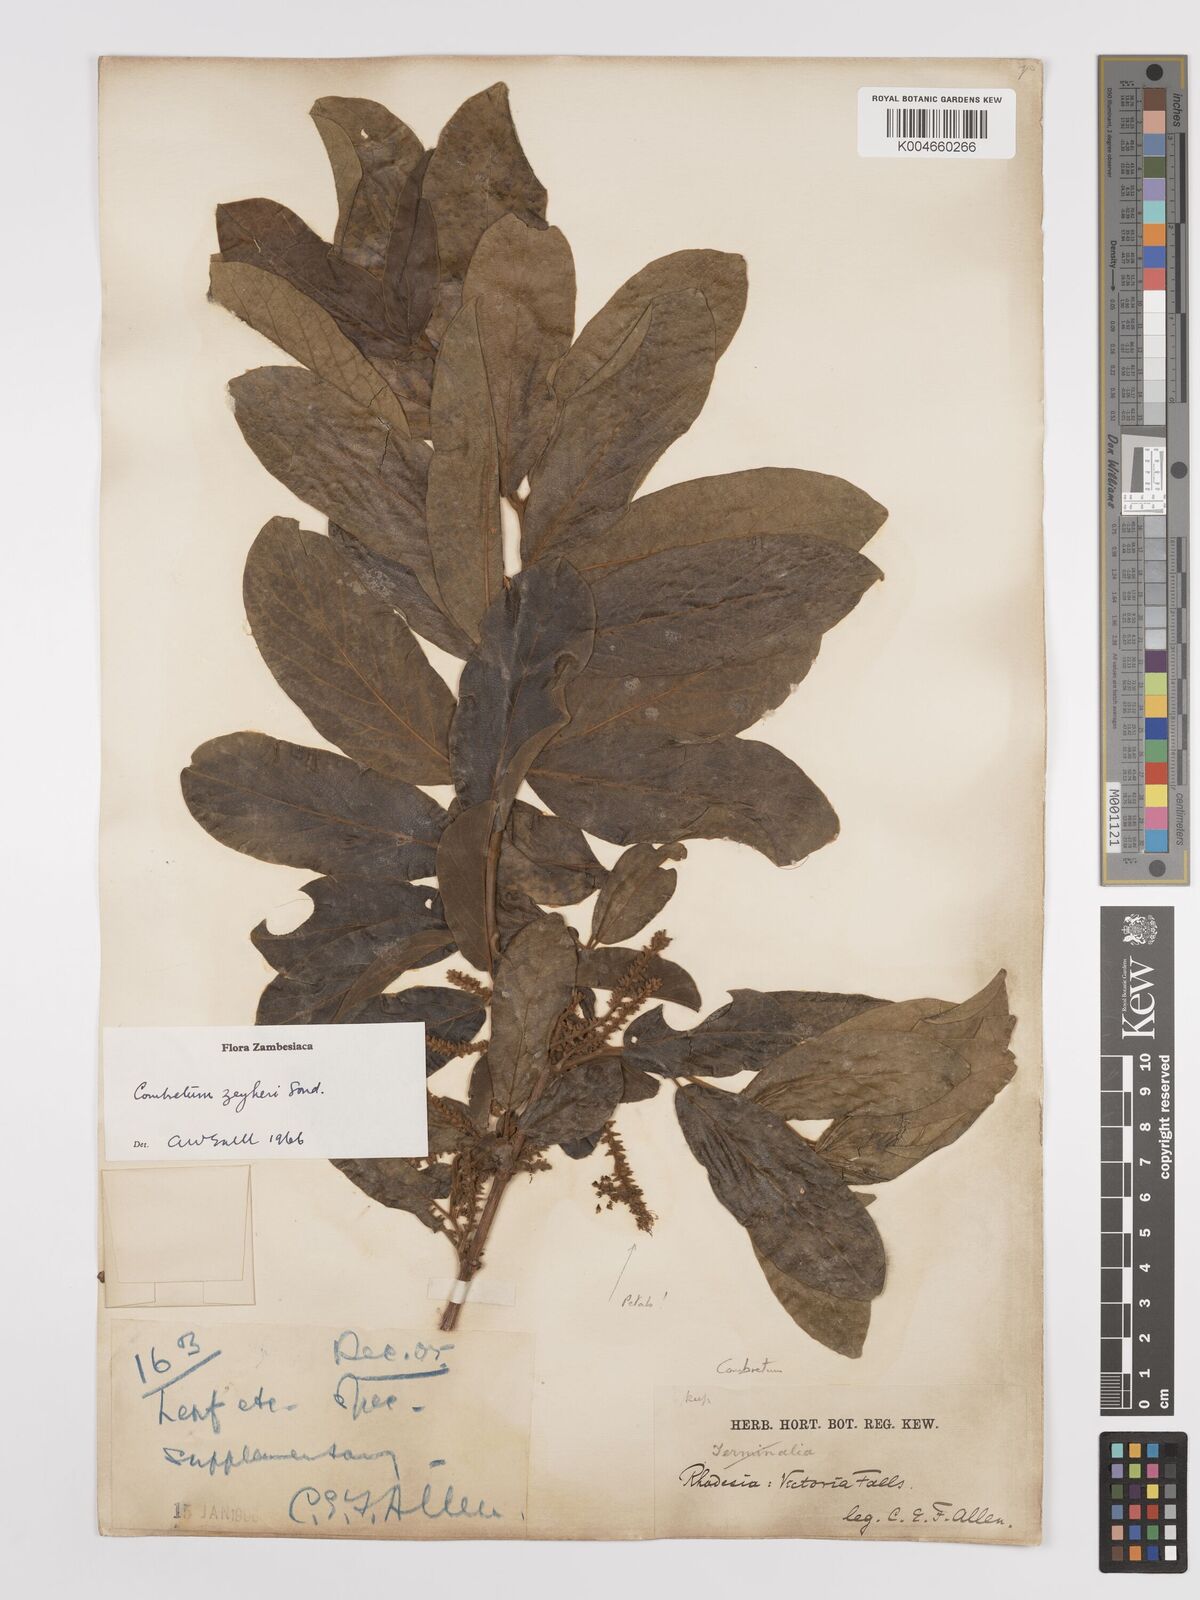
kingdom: Plantae
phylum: Tracheophyta
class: Magnoliopsida
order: Myrtales
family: Combretaceae
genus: Combretum
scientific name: Combretum zeyheri
